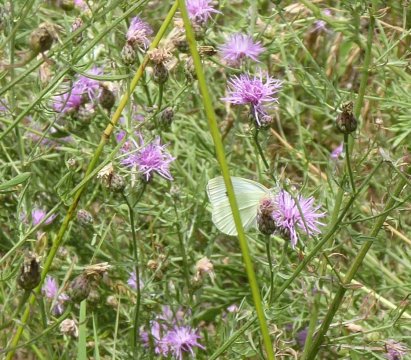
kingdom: Animalia
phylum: Arthropoda
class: Insecta
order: Lepidoptera
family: Pieridae
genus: Pieris
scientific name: Pieris rapae
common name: Cabbage White
